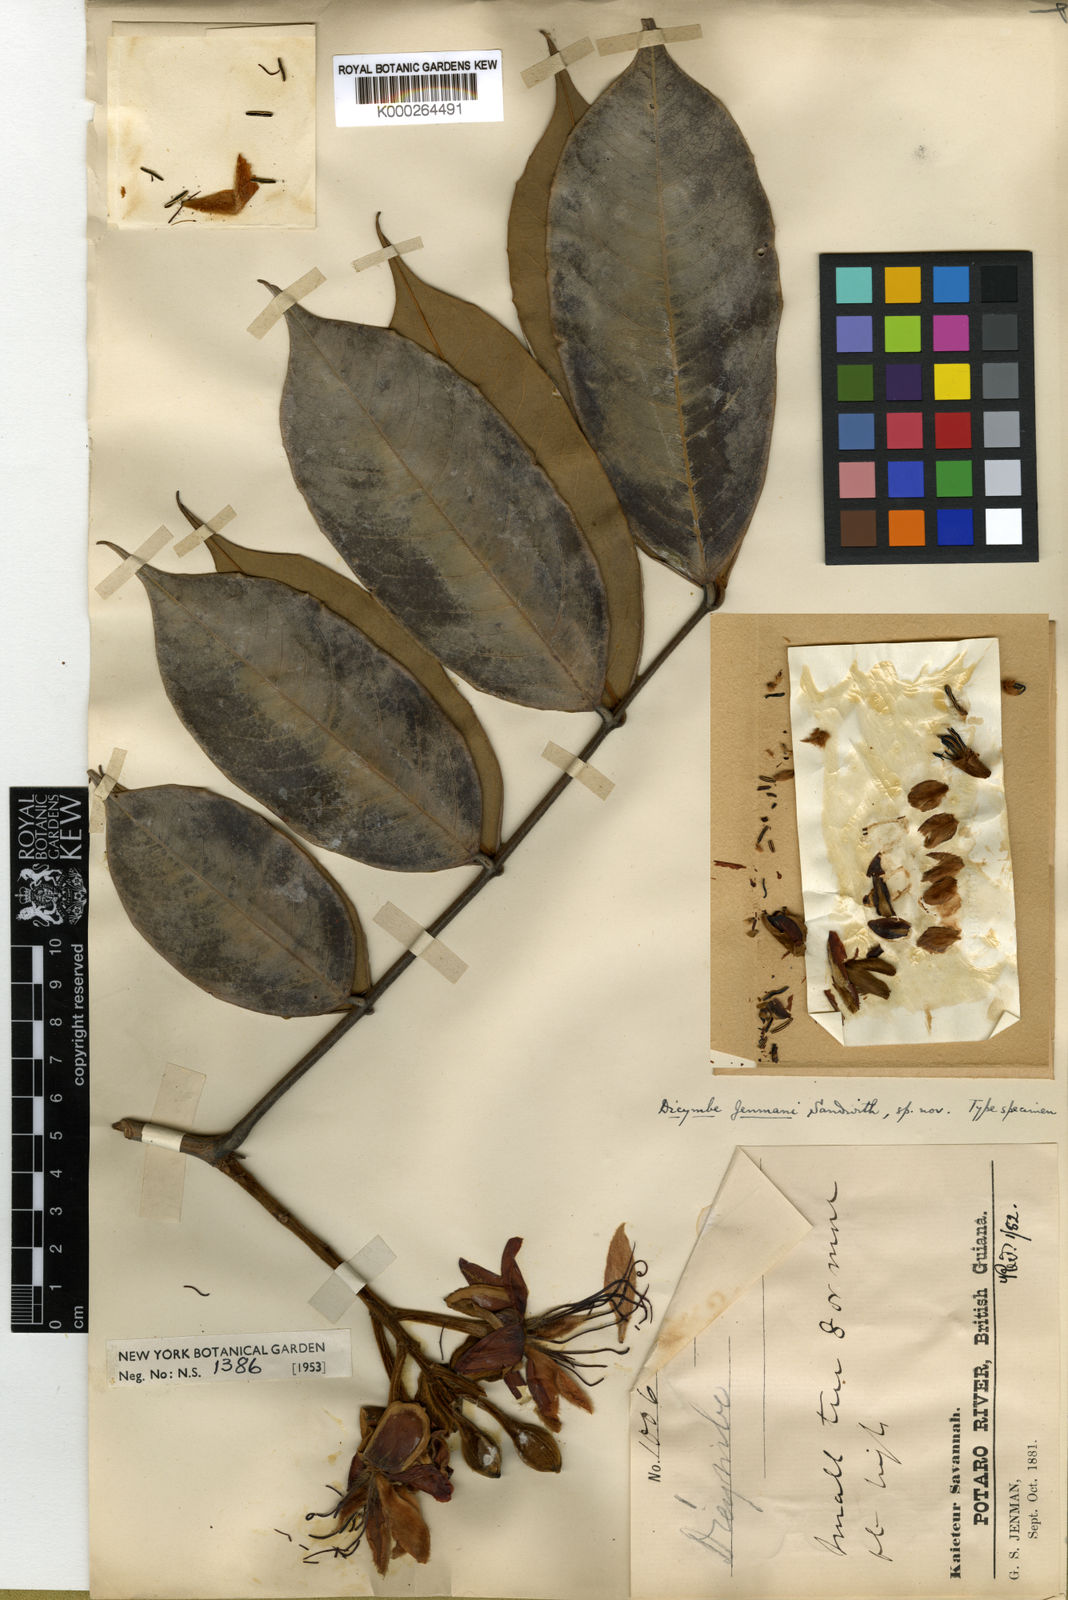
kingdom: Plantae
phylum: Tracheophyta
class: Magnoliopsida
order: Fabales
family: Fabaceae
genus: Dicymbe
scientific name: Dicymbe jenmanii
